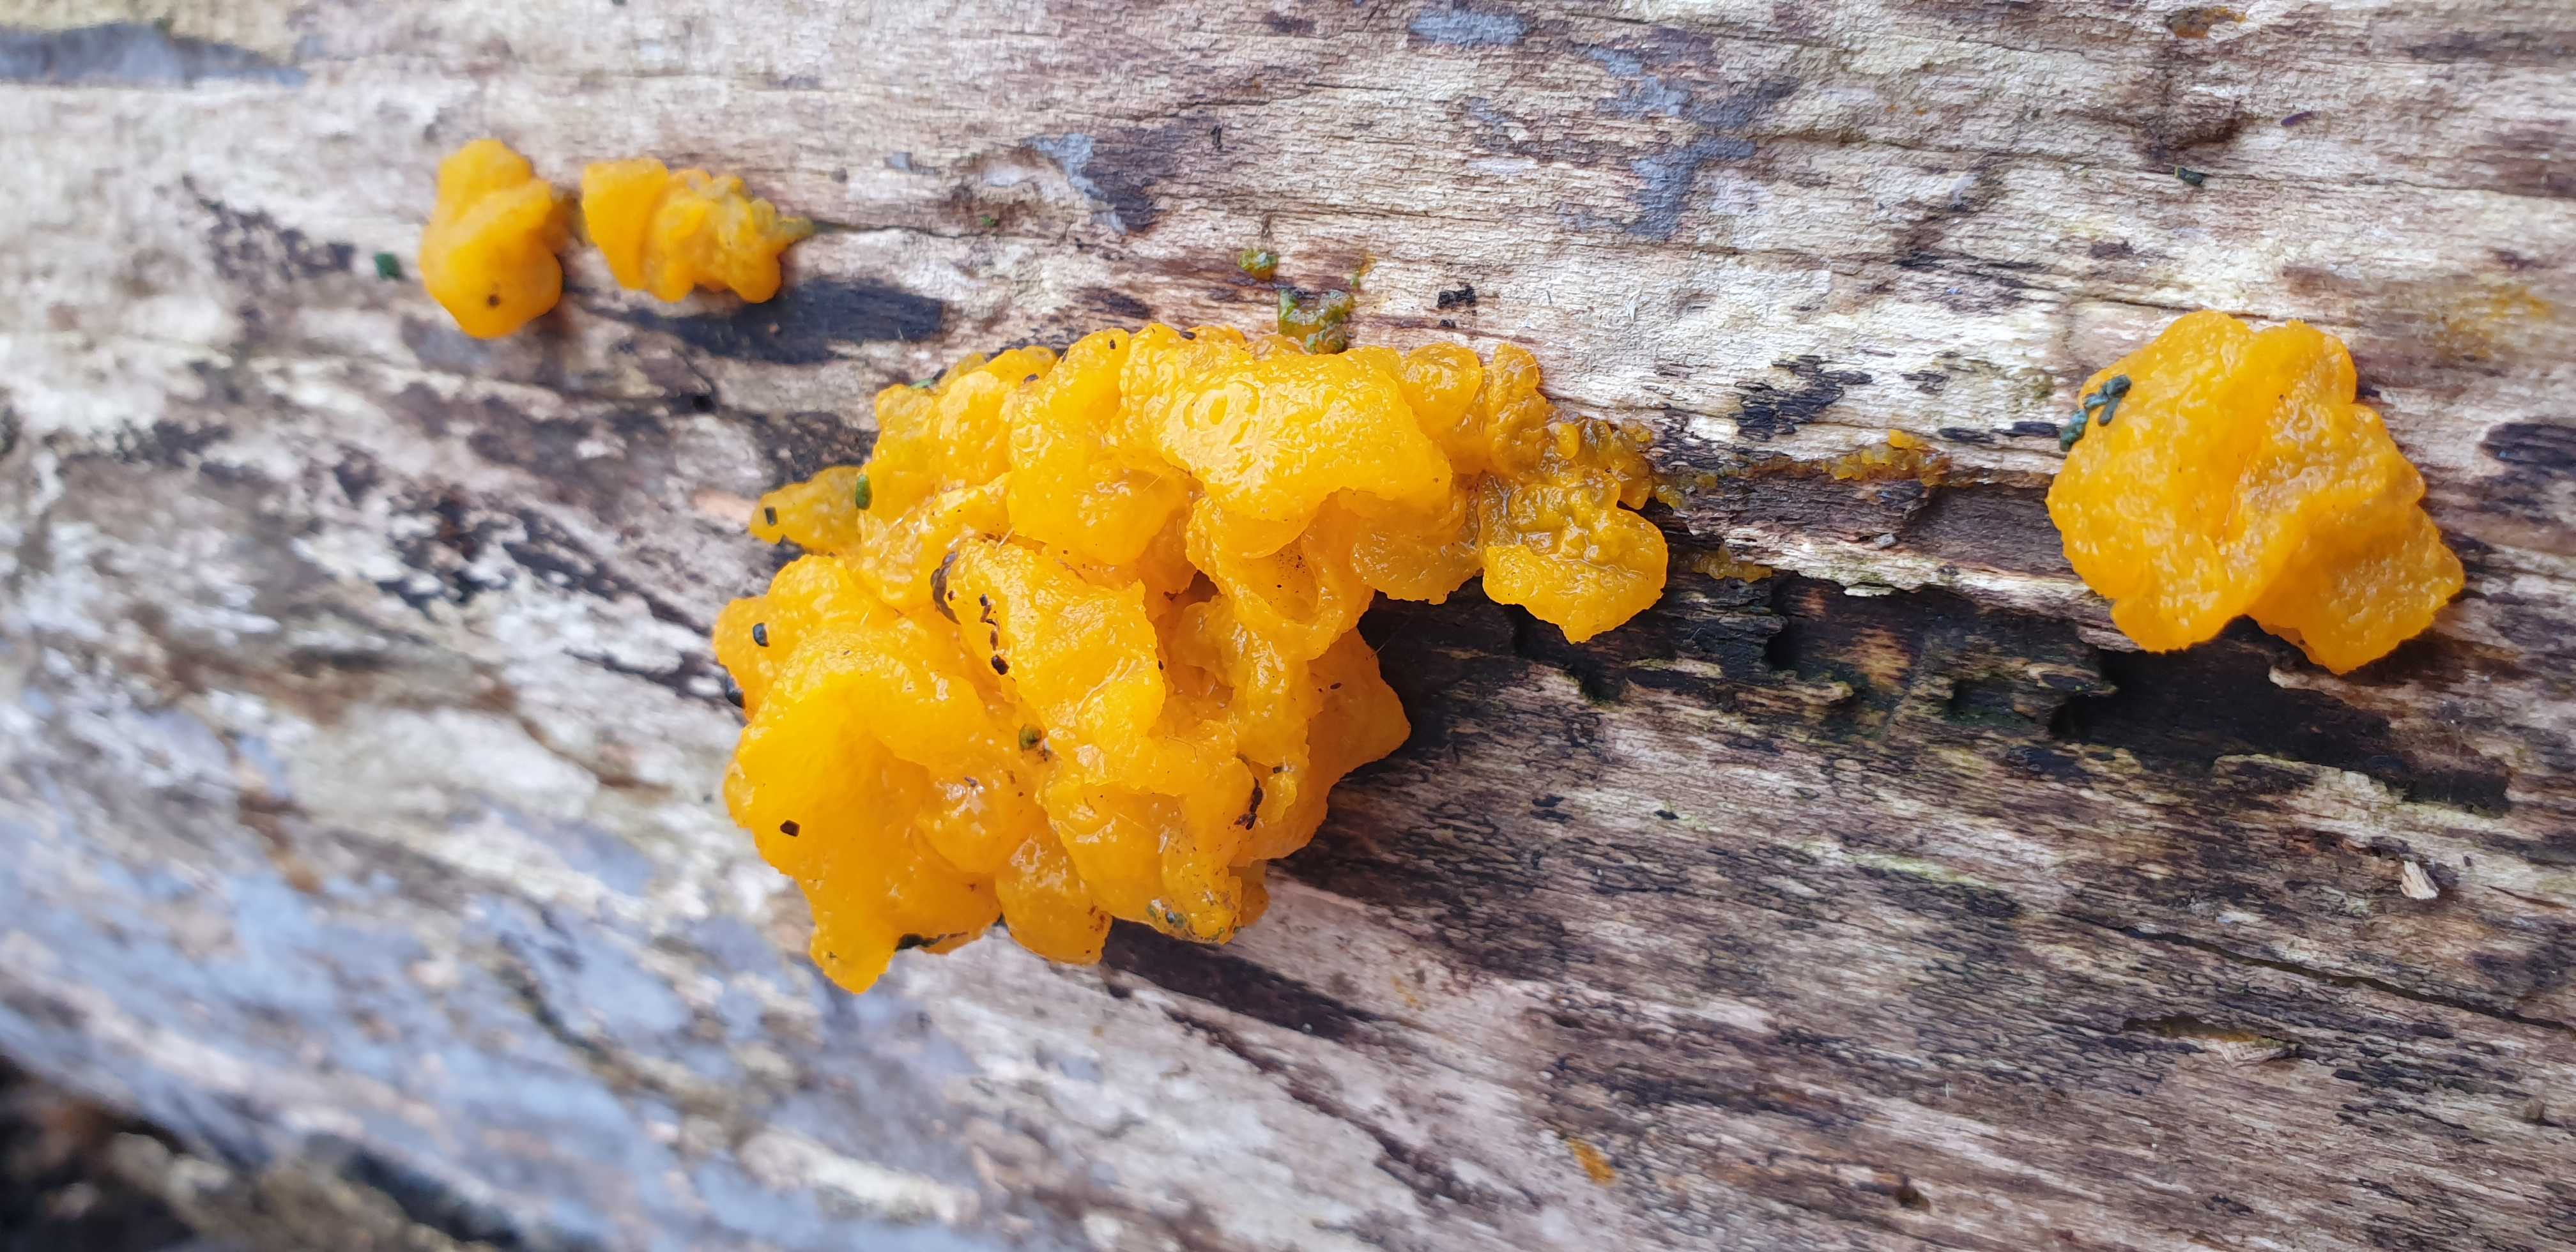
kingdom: Fungi
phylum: Basidiomycota
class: Tremellomycetes
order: Tremellales
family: Tremellaceae
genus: Tremella
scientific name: Tremella mesenterica
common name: gul bævresvamp
